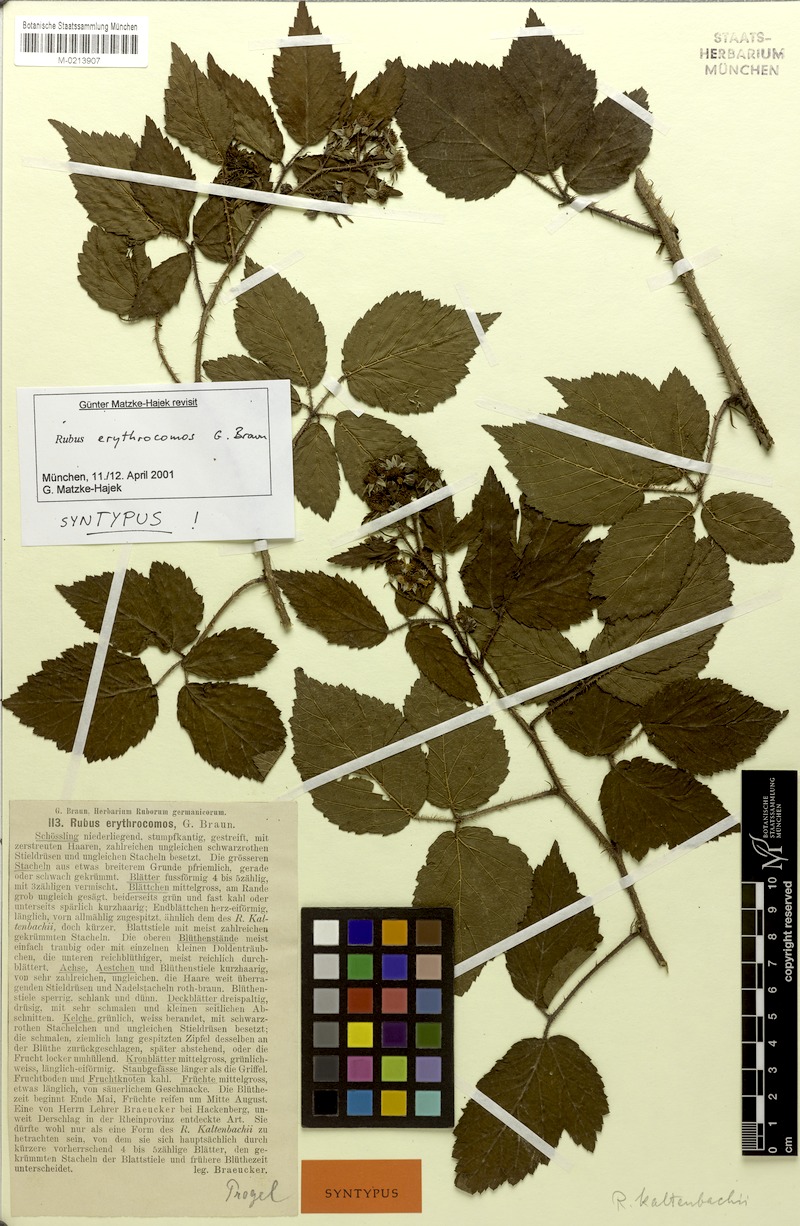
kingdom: Plantae
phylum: Tracheophyta
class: Magnoliopsida
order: Rosales
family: Rosaceae
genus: Rubus
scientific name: Rubus erythrocomos
